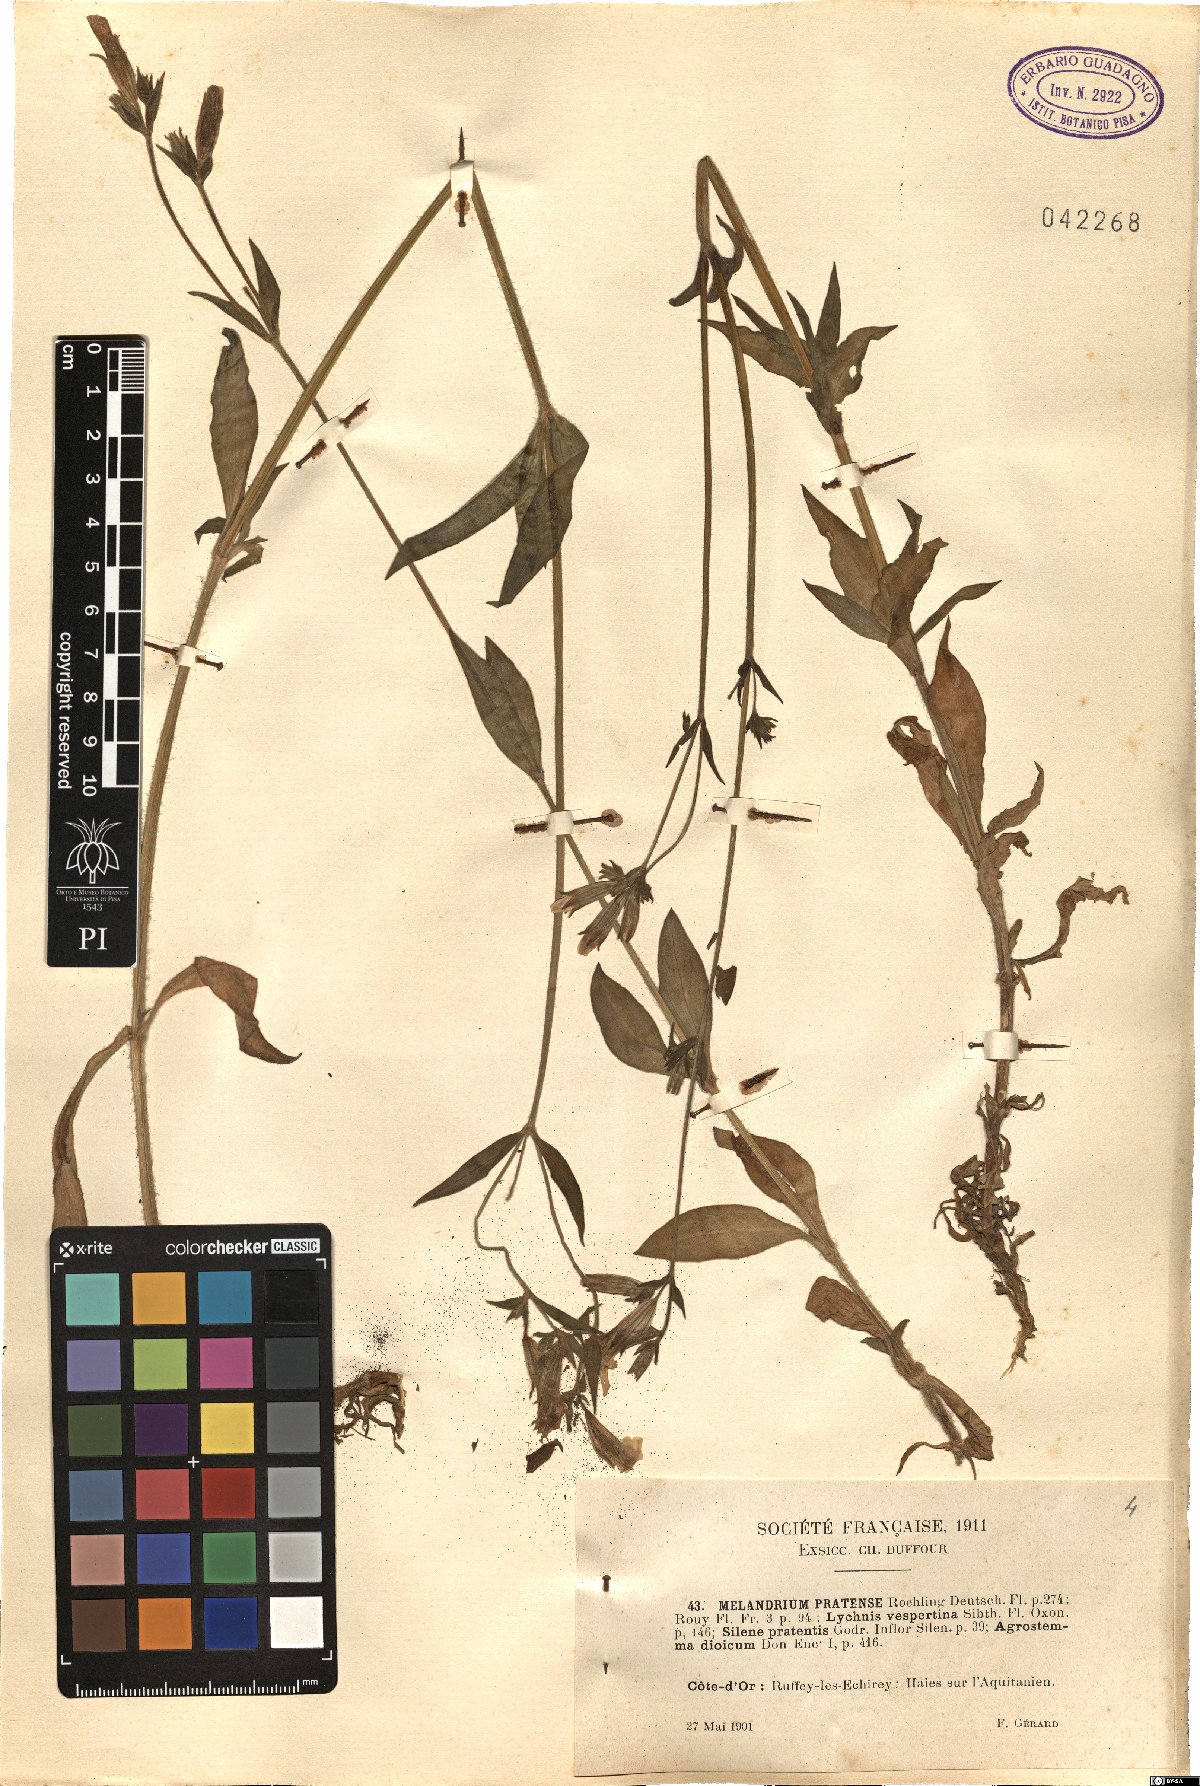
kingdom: Plantae
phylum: Tracheophyta
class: Magnoliopsida
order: Caryophyllales
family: Caryophyllaceae
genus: Silene
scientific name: Silene latifolia
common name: White campion
